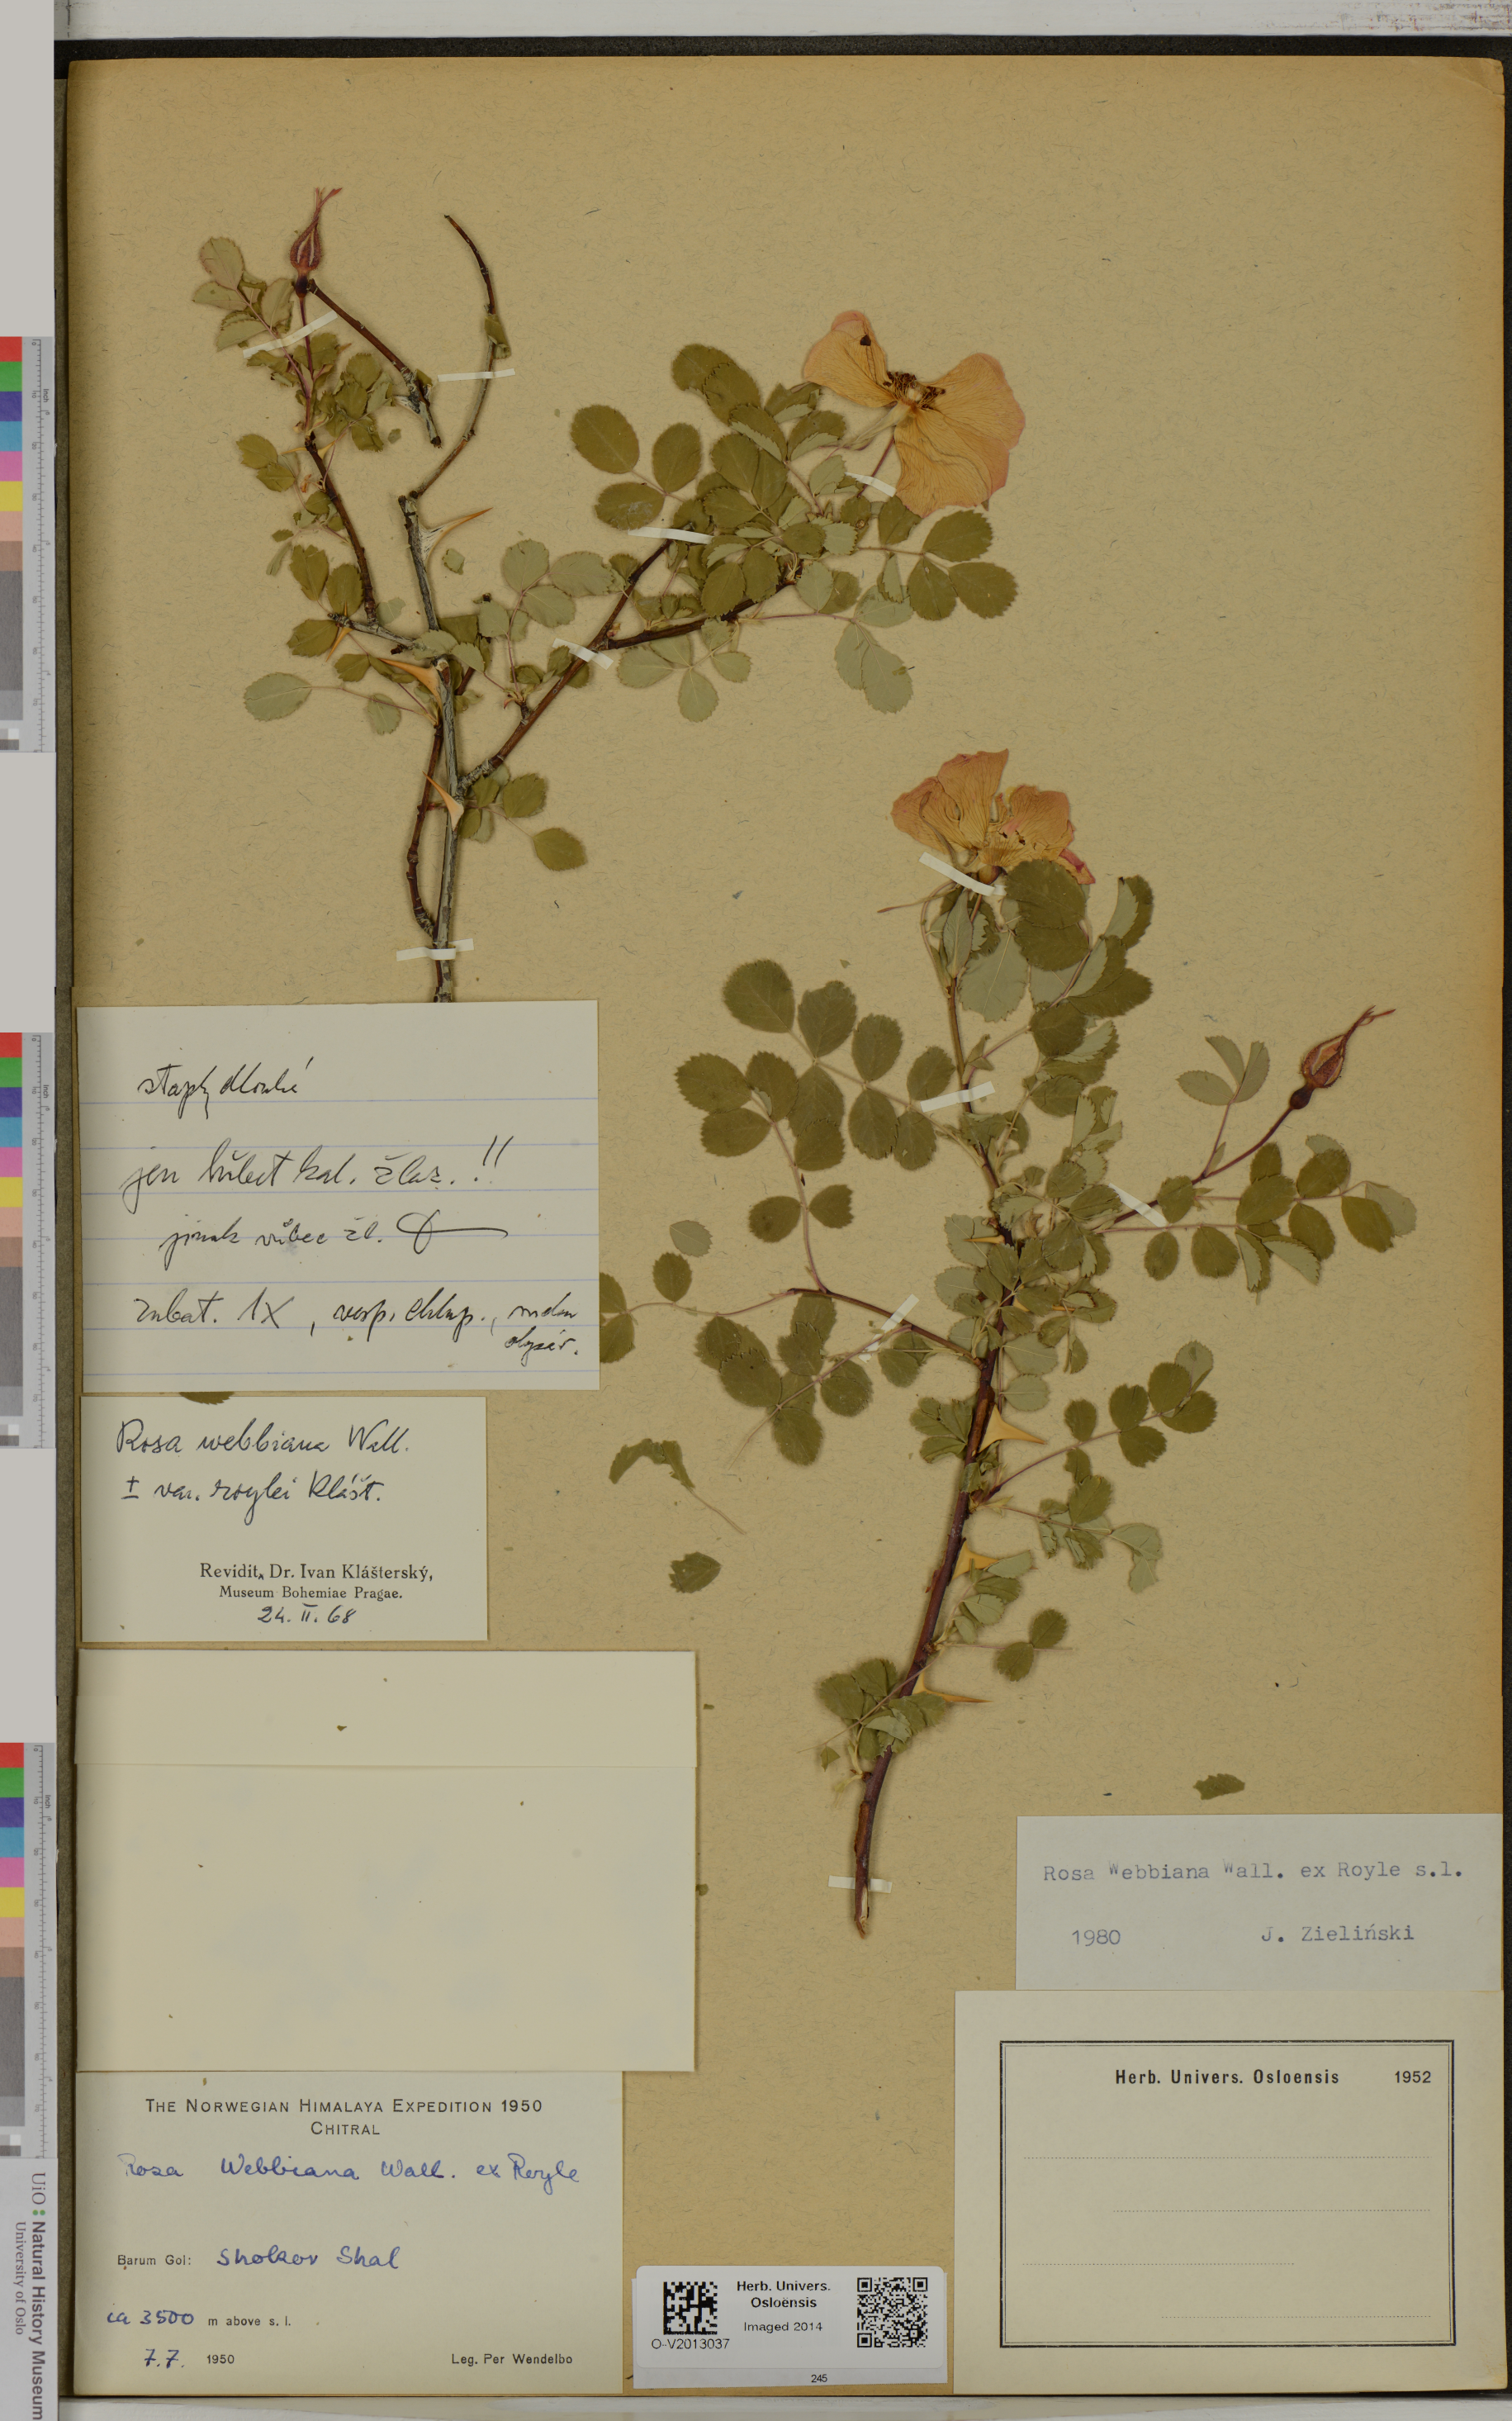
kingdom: Plantae
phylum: Tracheophyta
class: Magnoliopsida
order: Rosales
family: Rosaceae
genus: Rosa
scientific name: Rosa webbiana
